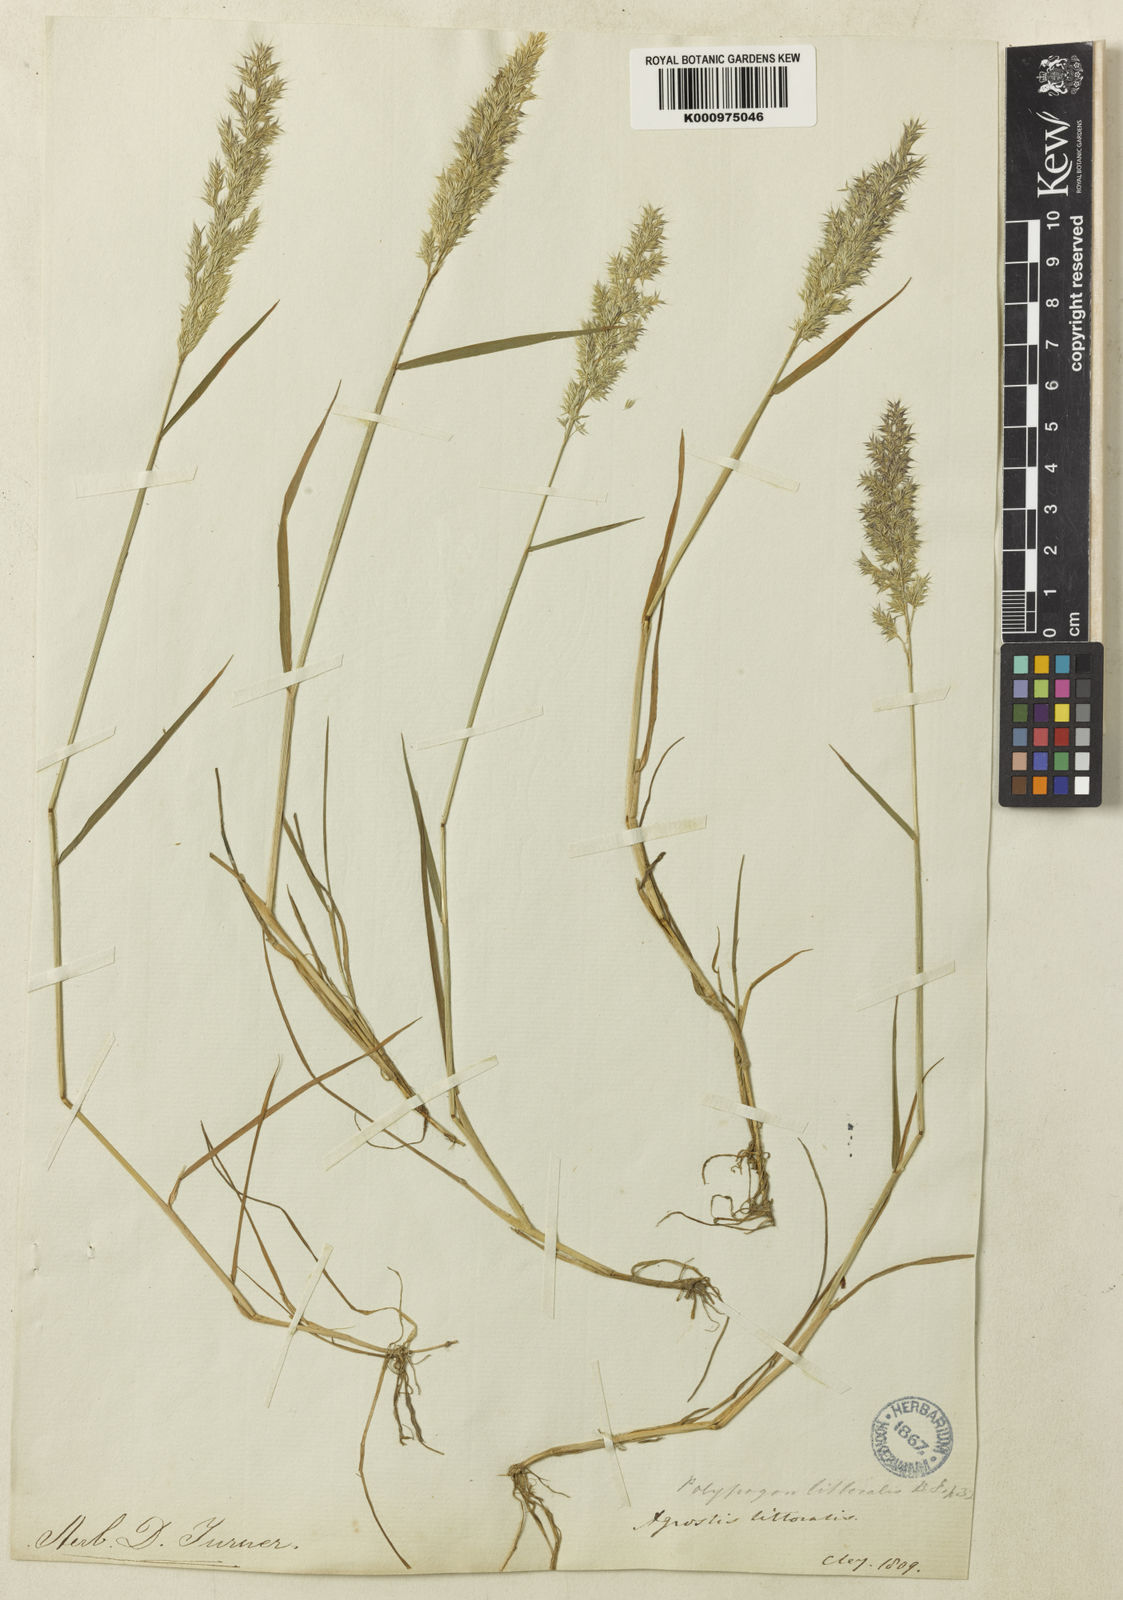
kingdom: Plantae
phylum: Tracheophyta
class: Liliopsida
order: Poales
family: Poaceae
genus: Agropogon
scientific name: Agropogon lutosus
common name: Coast agropogon
